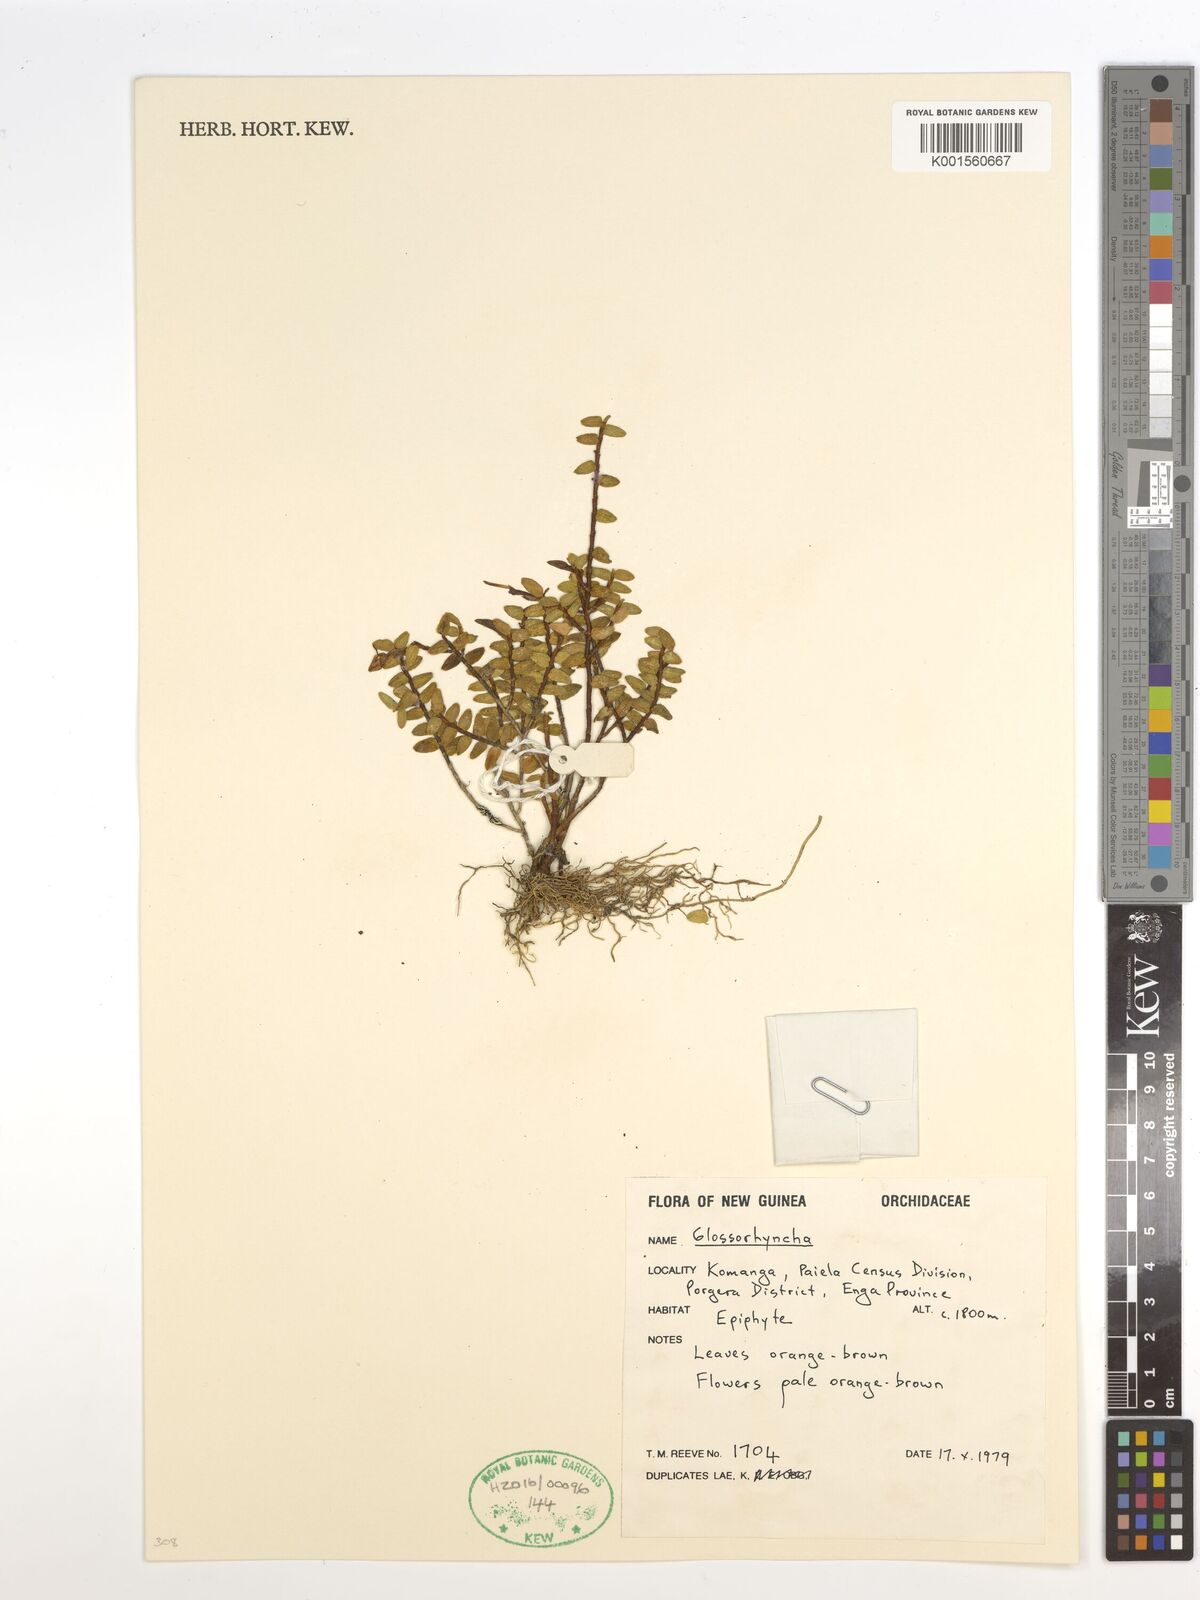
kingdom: Plantae
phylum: Tracheophyta
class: Liliopsida
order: Asparagales
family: Orchidaceae
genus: Glomera
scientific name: Glomera
